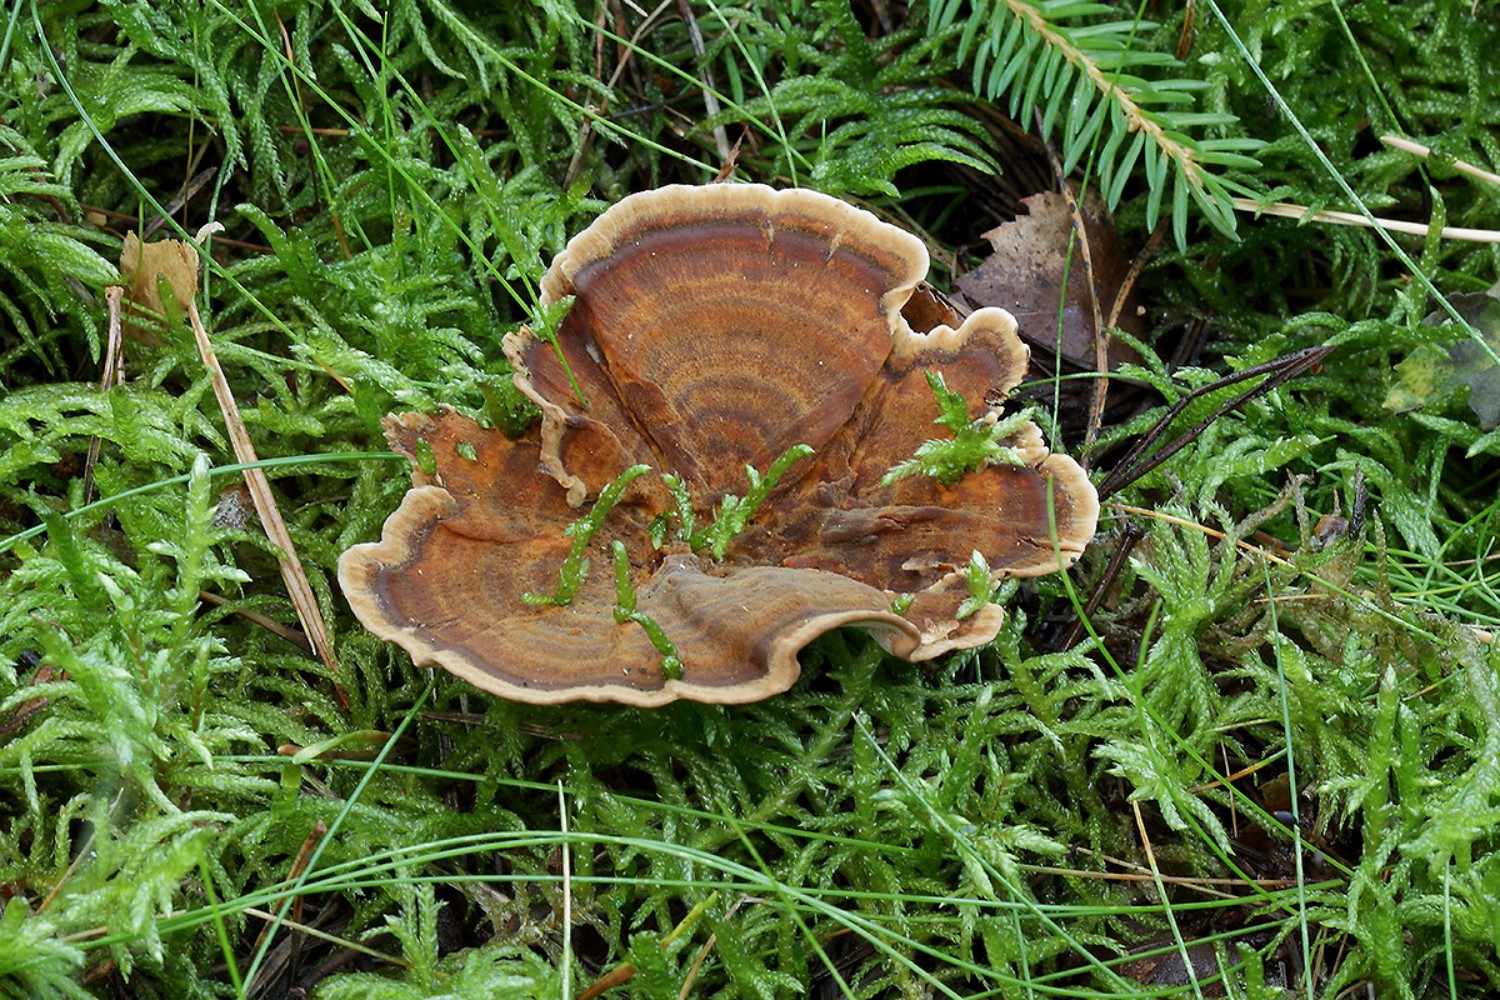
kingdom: Fungi
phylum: Basidiomycota
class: Agaricomycetes
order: Hymenochaetales
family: Hymenochaetaceae
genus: Coltricia
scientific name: Coltricia perennis
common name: almindelig sandporesvamp
